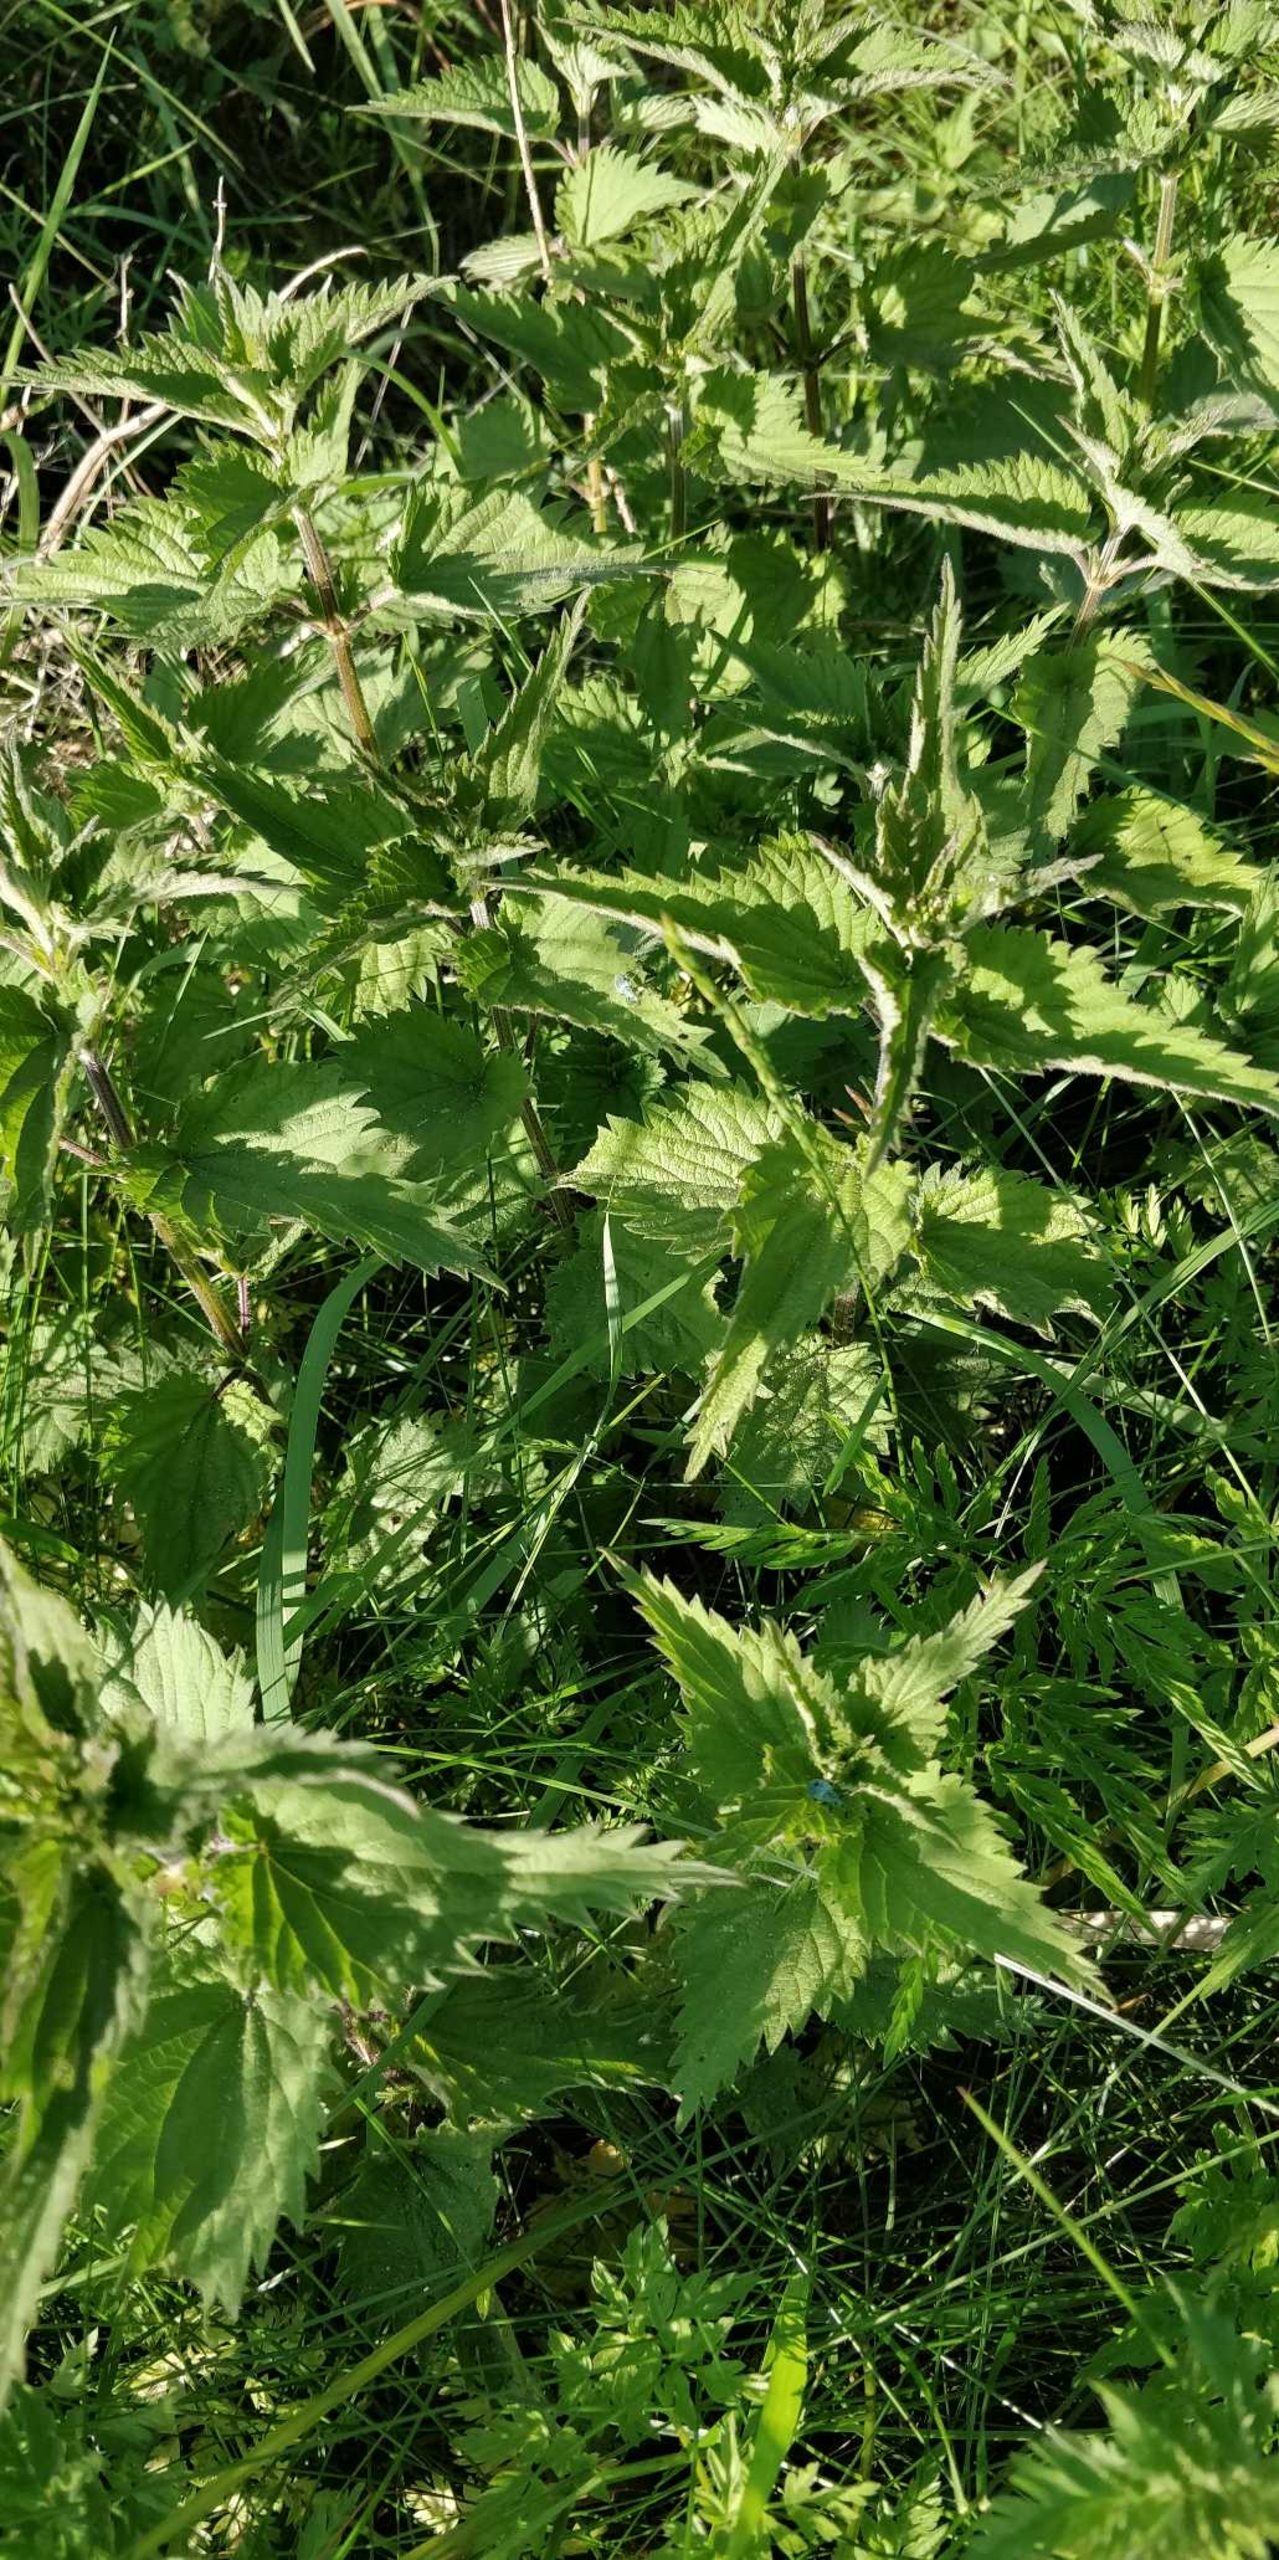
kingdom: Plantae
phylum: Tracheophyta
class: Magnoliopsida
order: Rosales
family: Urticaceae
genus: Urtica
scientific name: Urtica dioica
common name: Stor nælde
